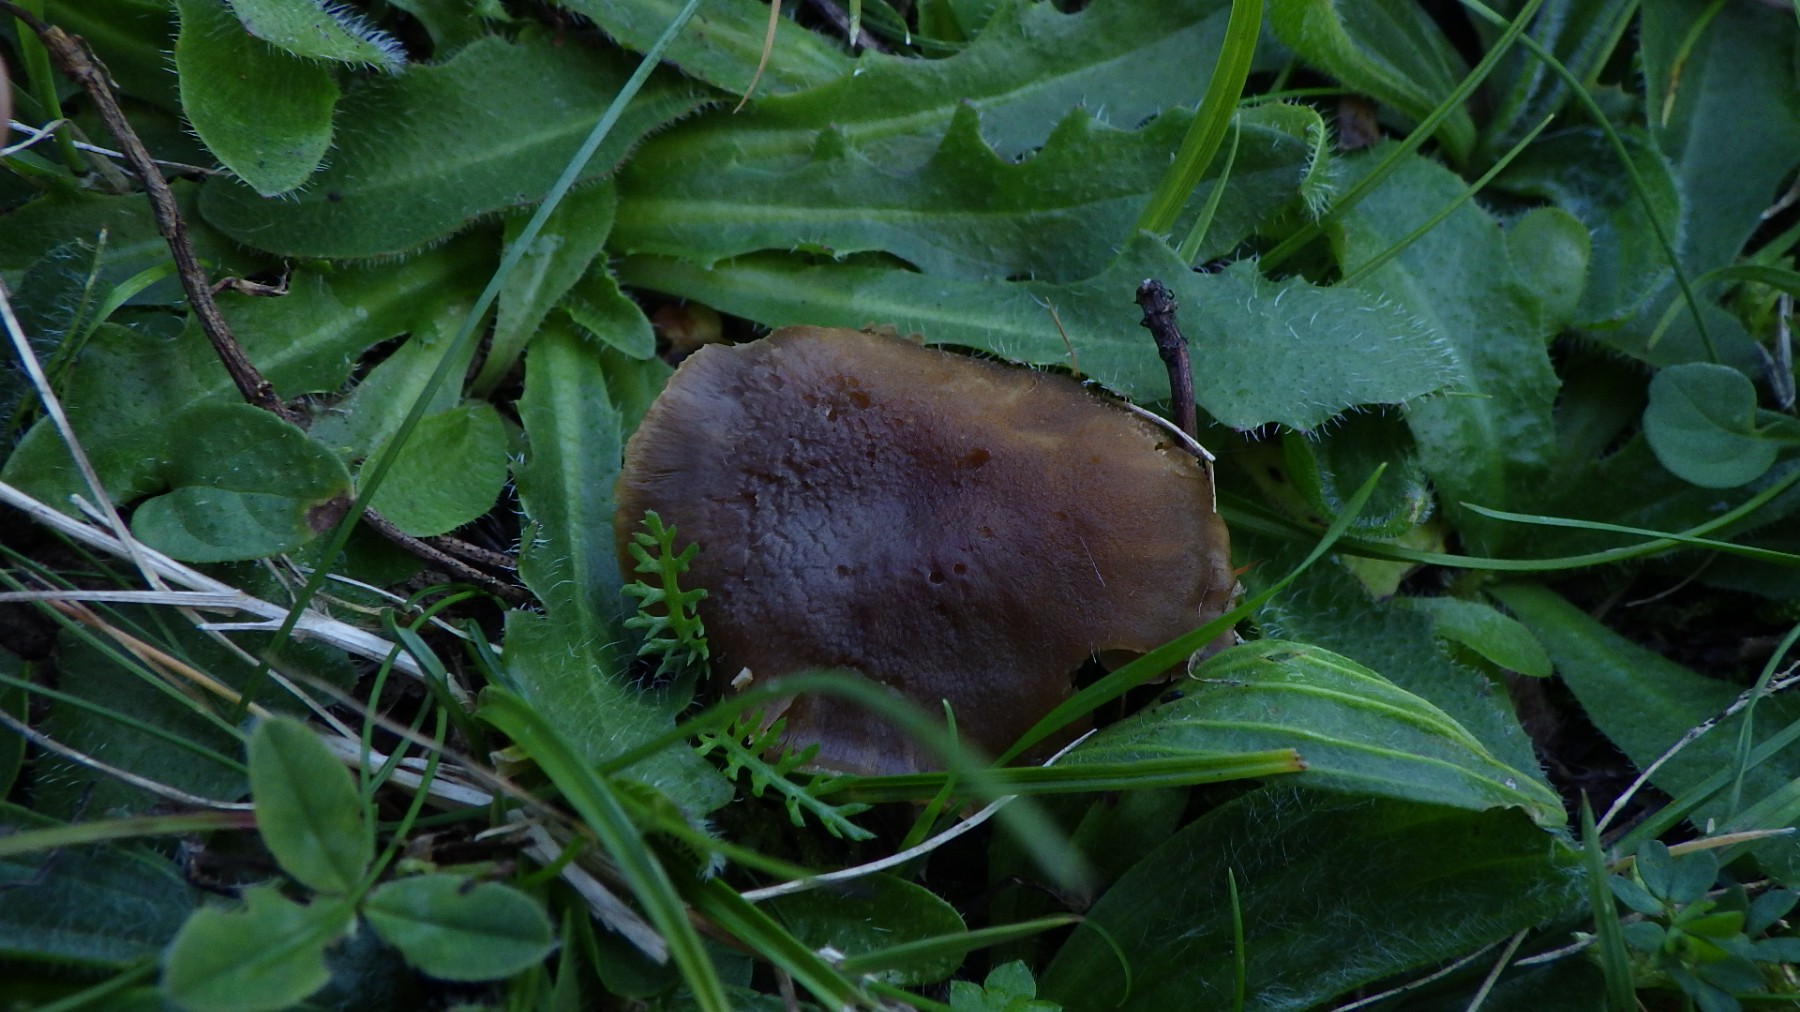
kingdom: Fungi
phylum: Basidiomycota
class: Agaricomycetes
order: Agaricales
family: Clavariaceae
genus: Camarophyllopsis
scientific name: Camarophyllopsis schulzeri
